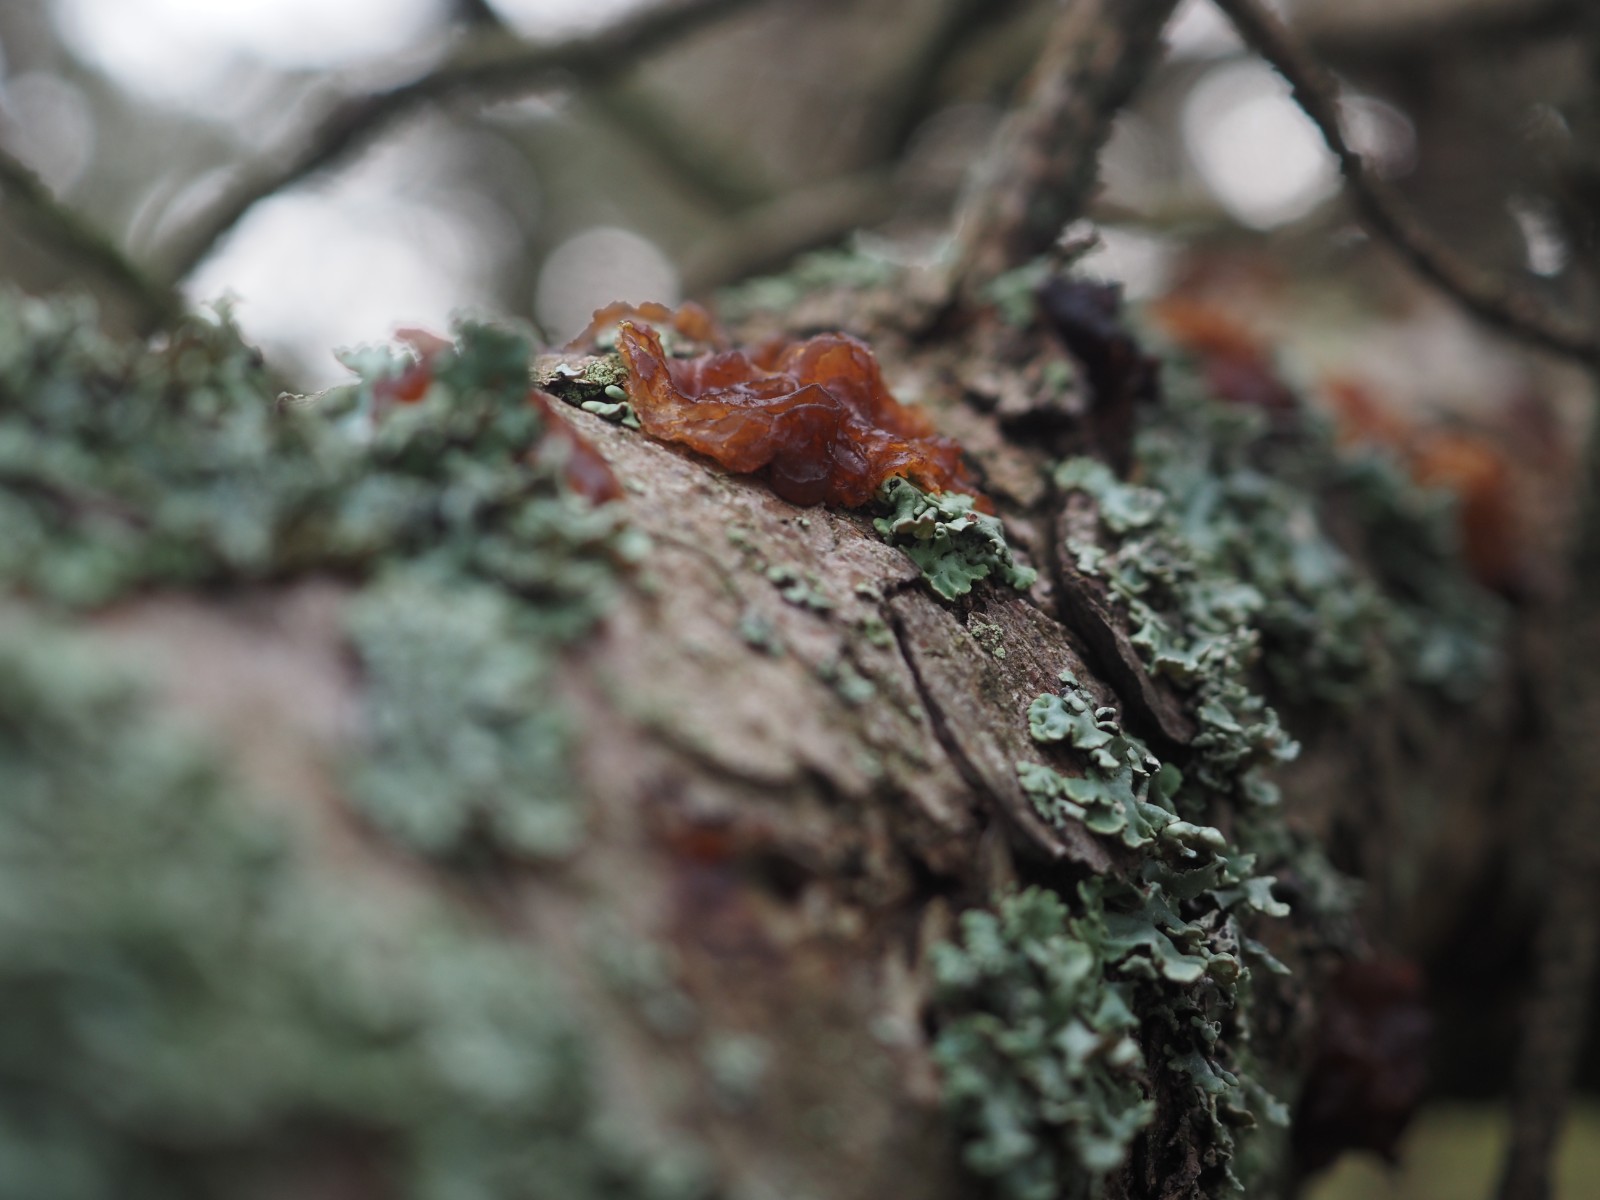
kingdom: Fungi
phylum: Basidiomycota
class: Agaricomycetes
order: Auriculariales
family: Auriculariaceae
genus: Exidia
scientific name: Exidia saccharina
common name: kandis-bævretop
